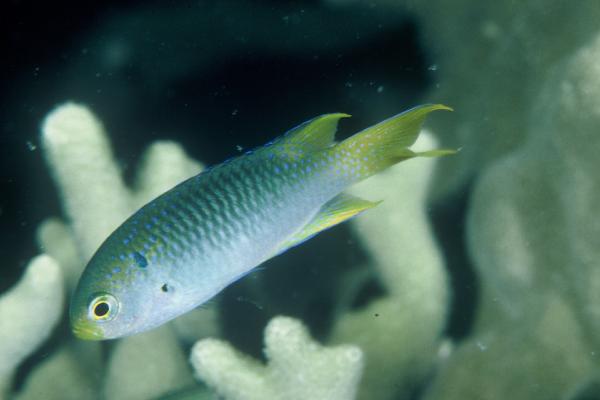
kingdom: Animalia
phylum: Chordata
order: Perciformes
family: Pomacentridae
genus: Neopomacentrus
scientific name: Neopomacentrus nemurus
